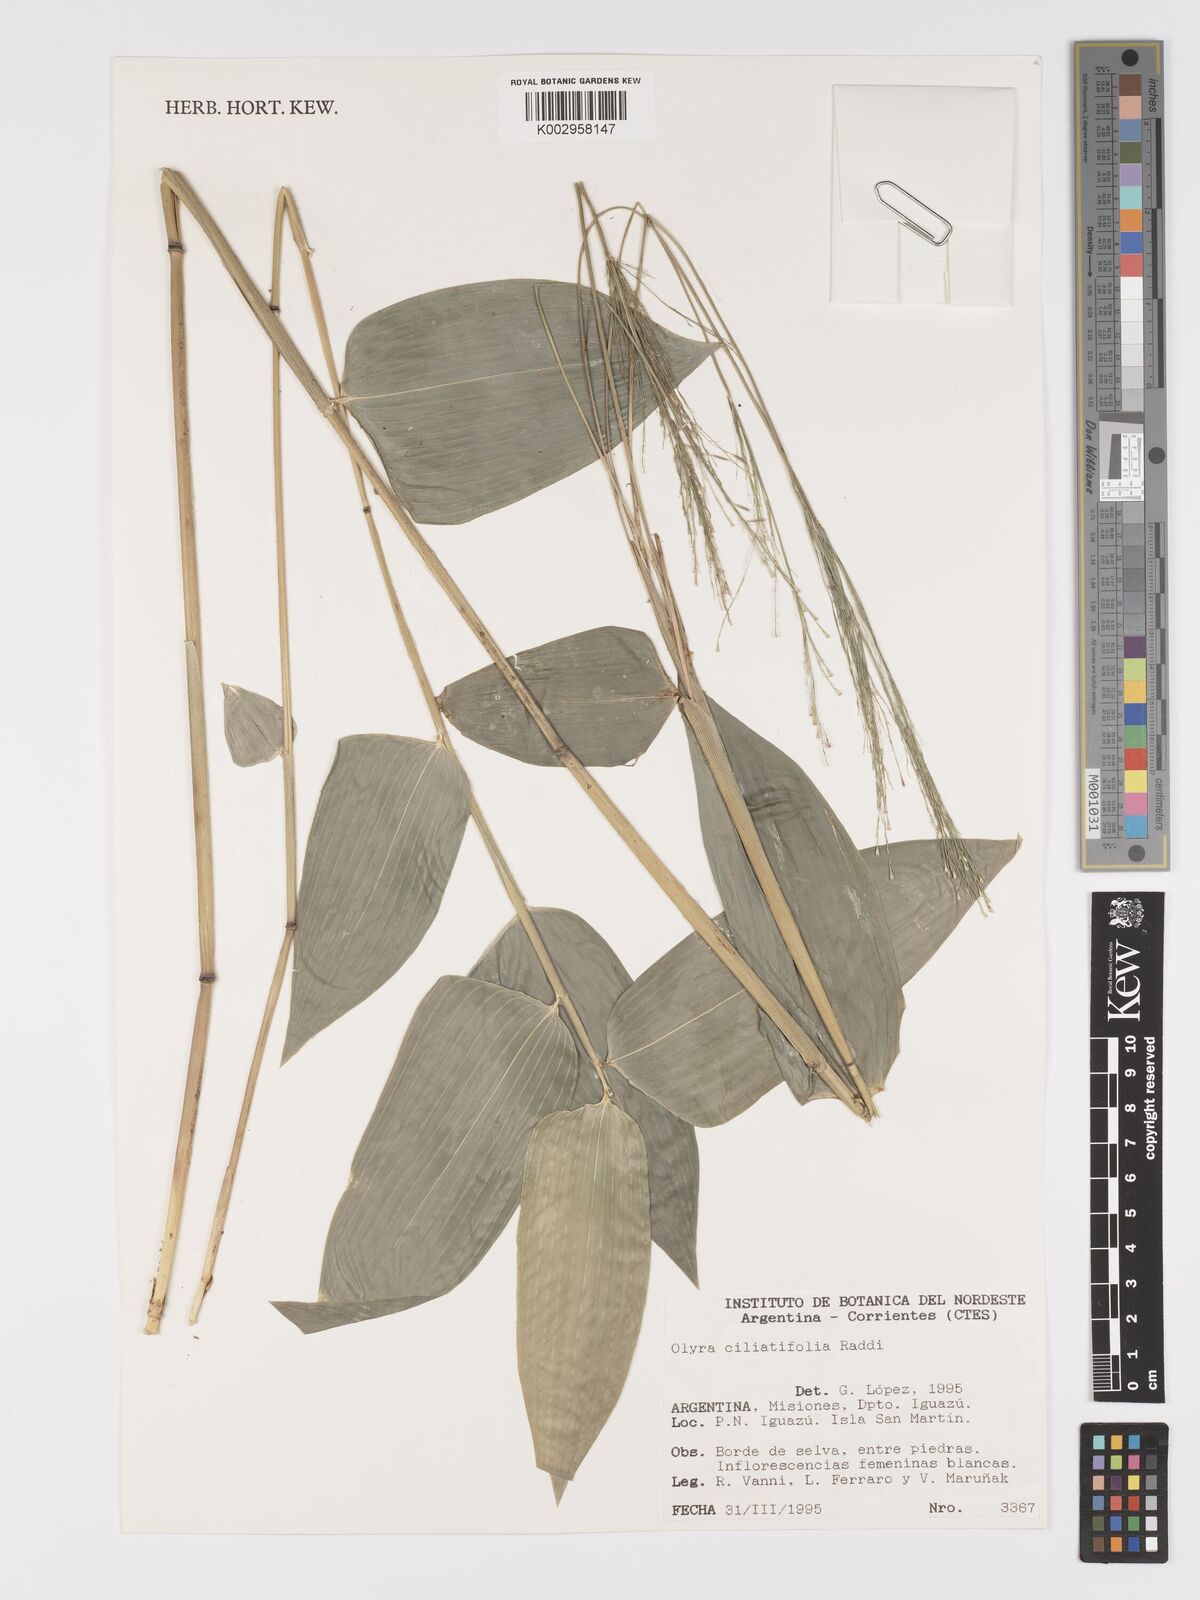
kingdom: Plantae
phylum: Tracheophyta
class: Liliopsida
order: Poales
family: Poaceae
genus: Olyra
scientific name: Olyra ciliatifolia
